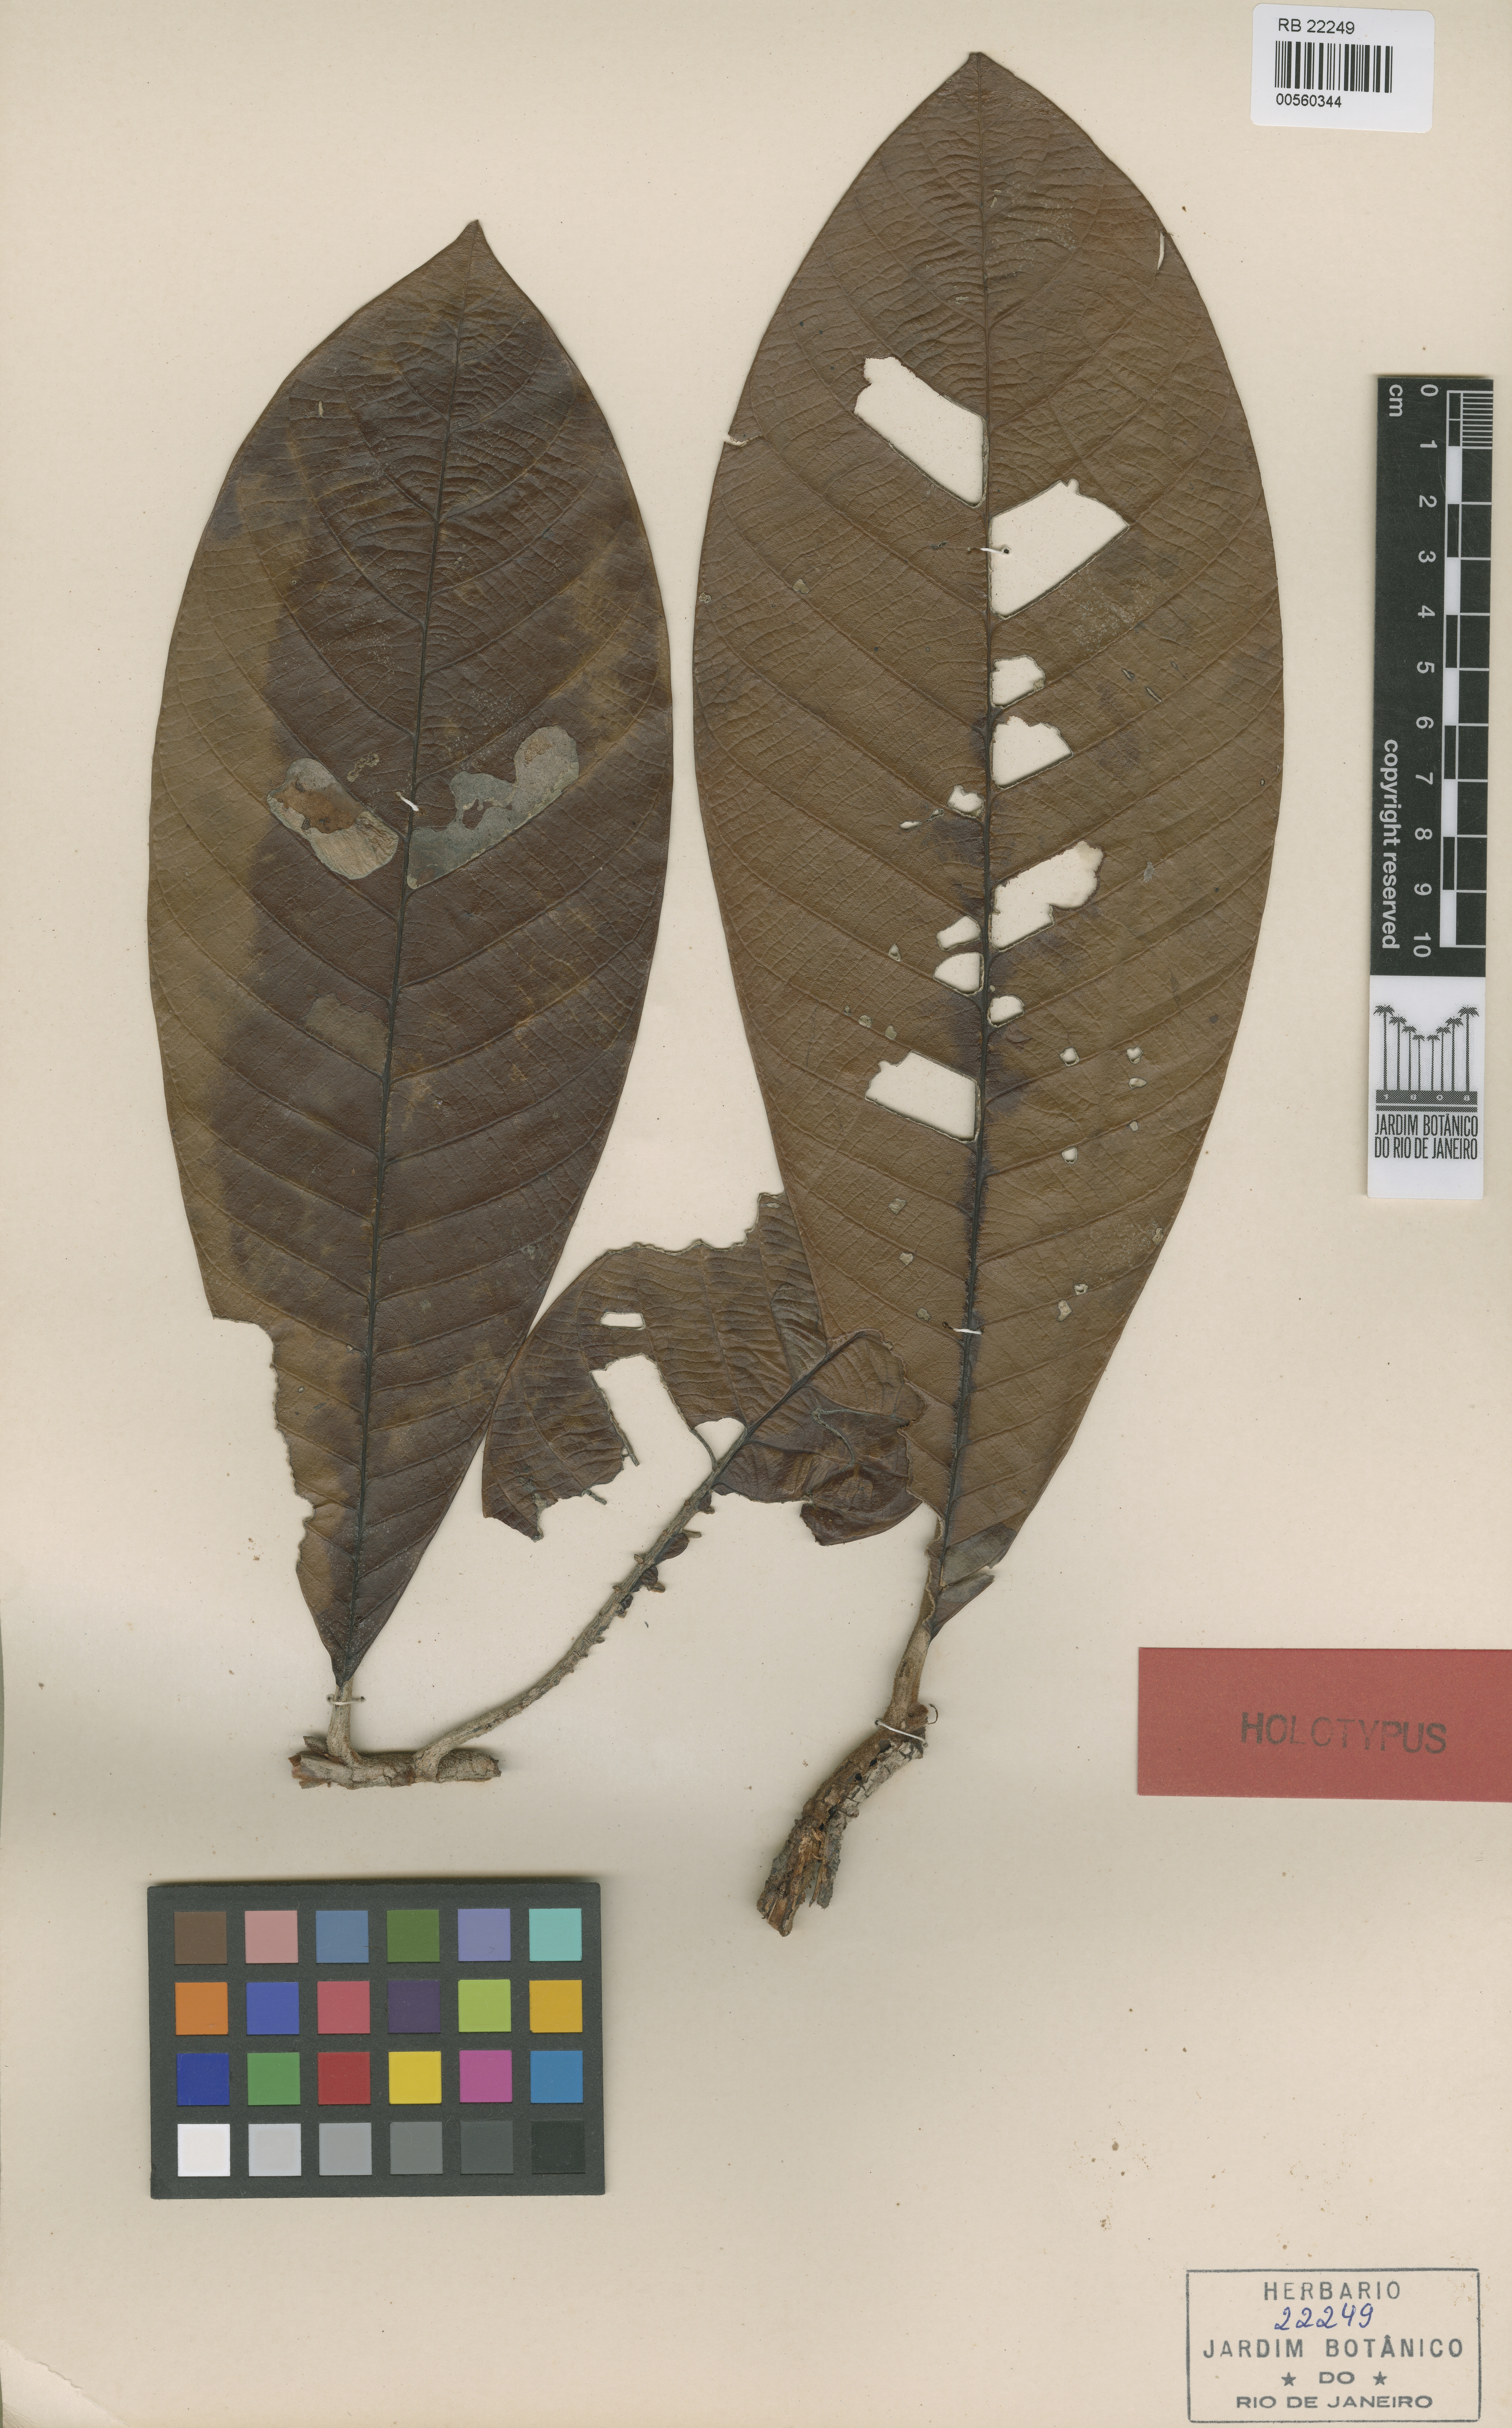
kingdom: Plantae
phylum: Tracheophyta
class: Magnoliopsida
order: Ericales
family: Sapotaceae
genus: Ecclinusa
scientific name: Ecclinusa ramiflora
